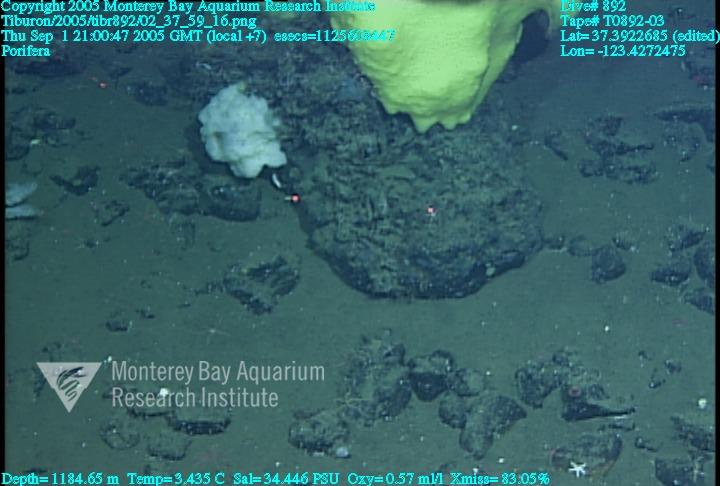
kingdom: Animalia
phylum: Porifera
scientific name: Porifera
